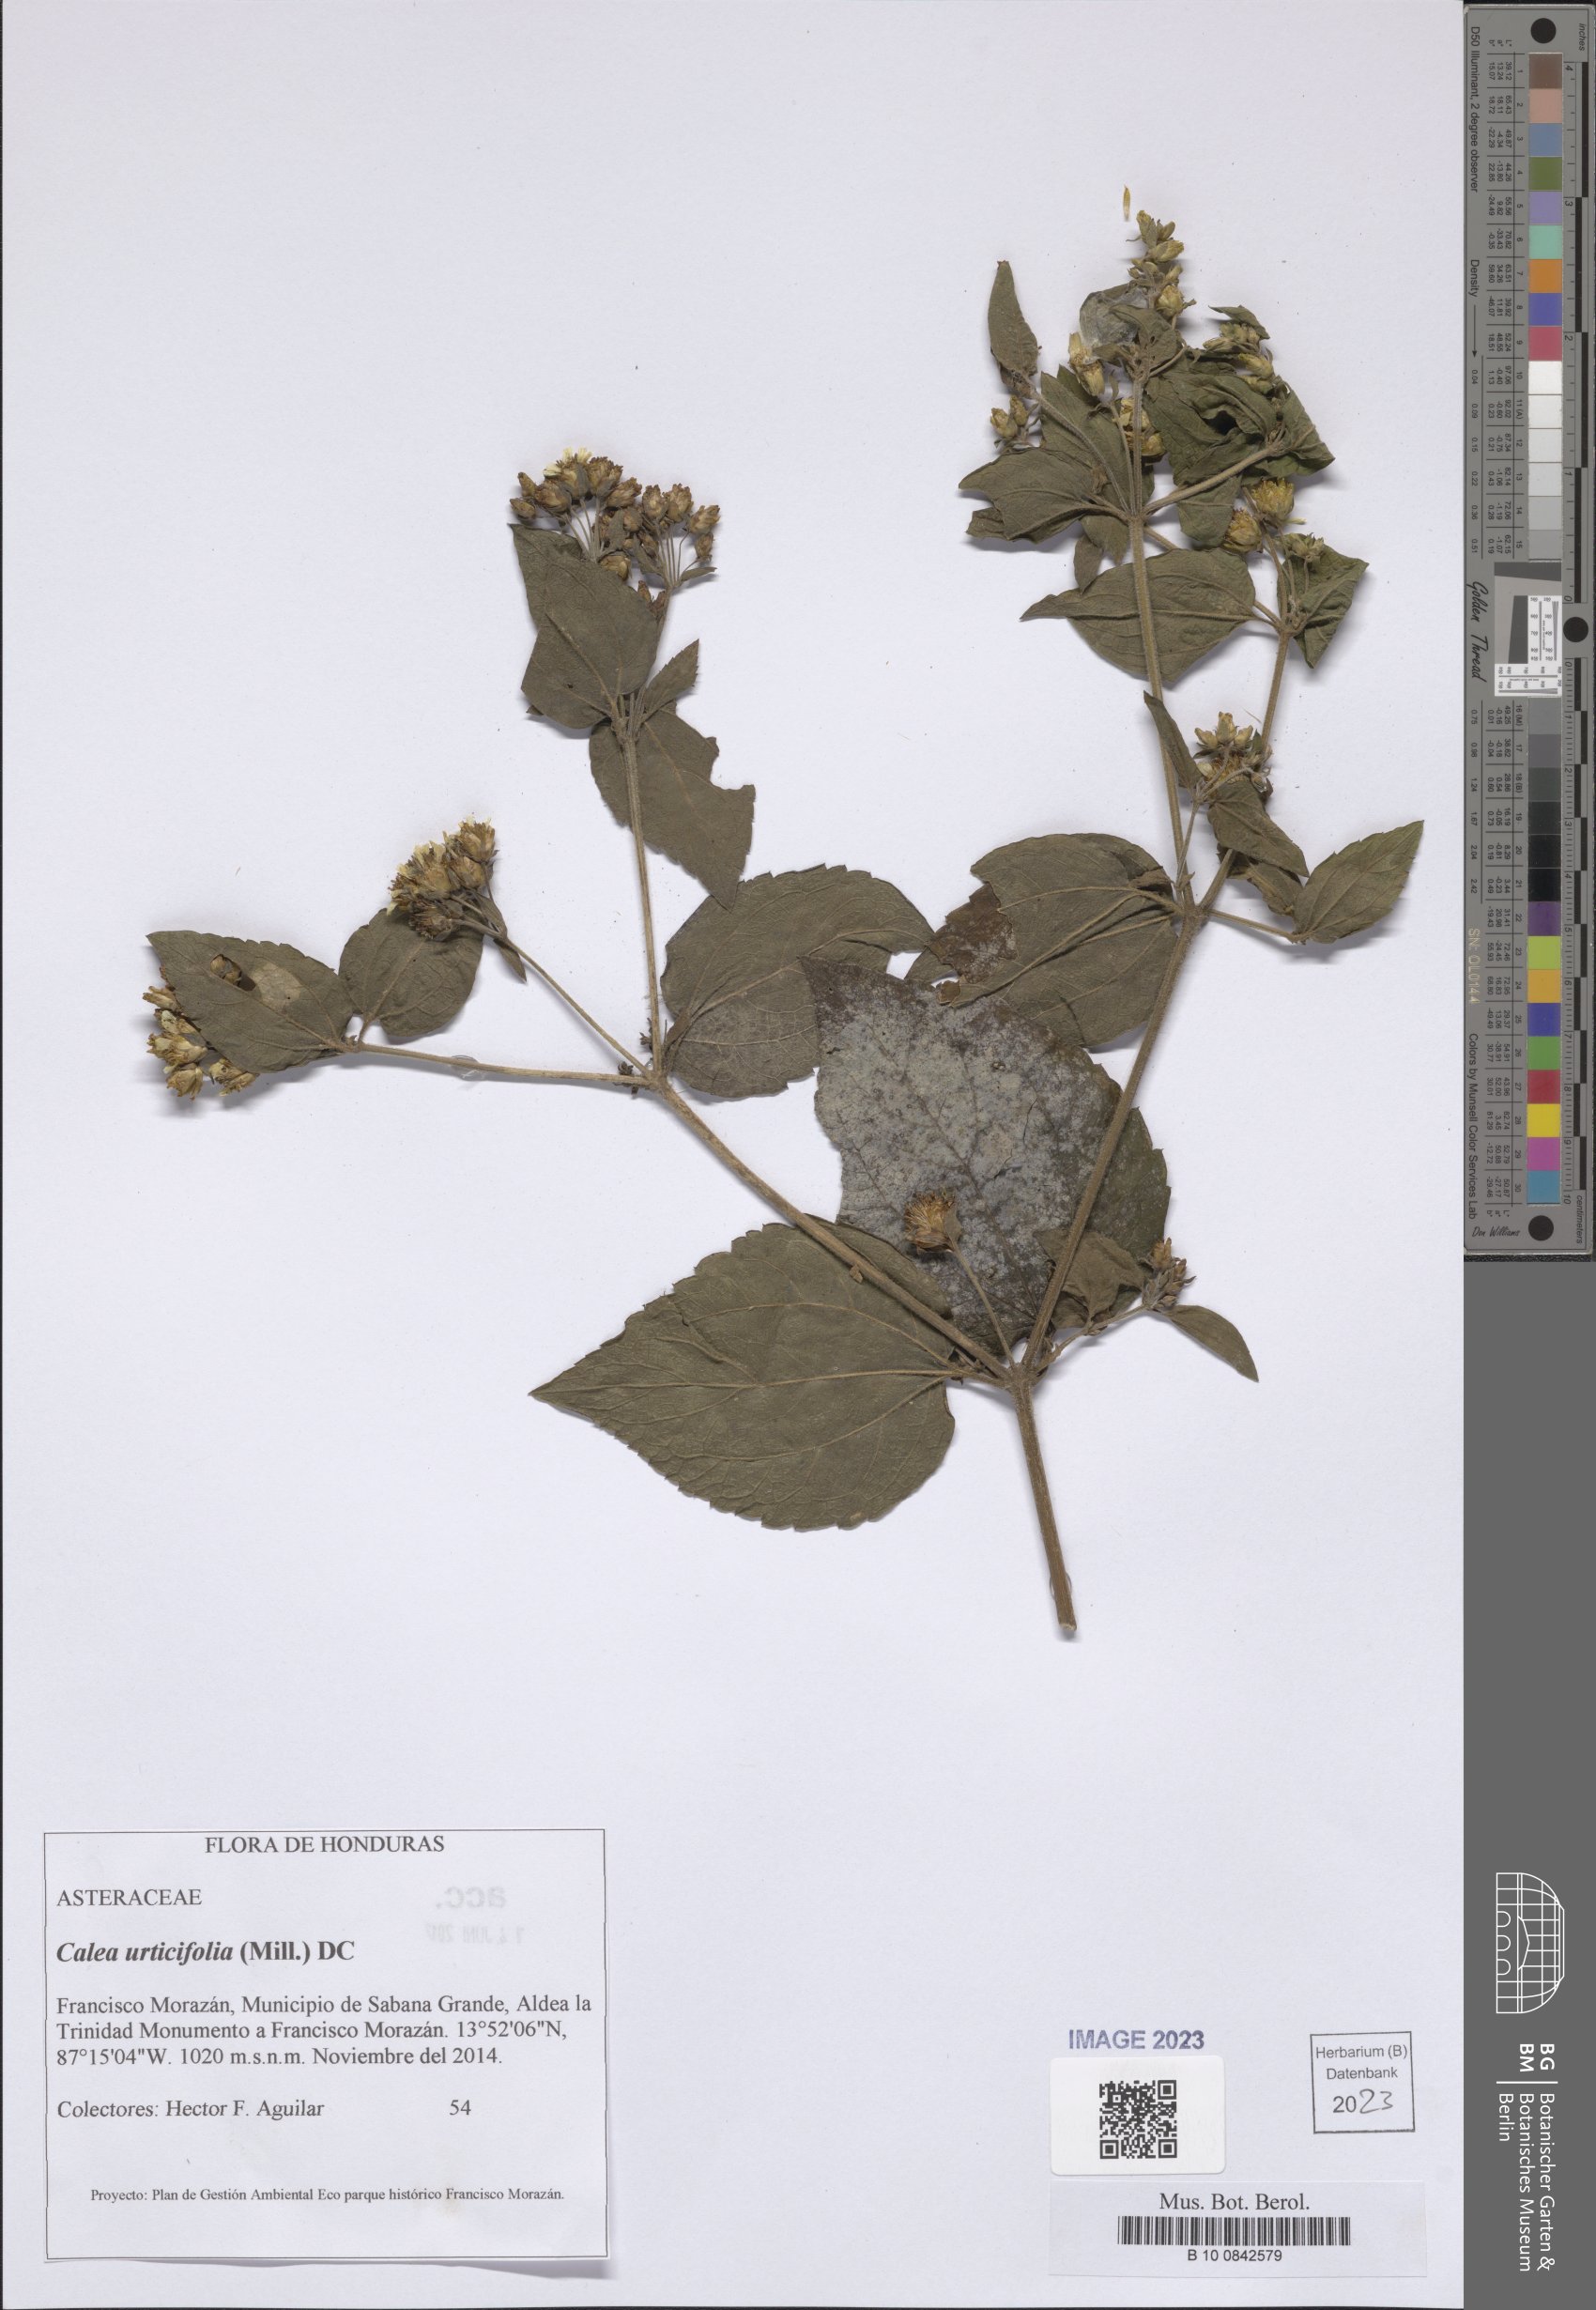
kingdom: Plantae
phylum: Tracheophyta
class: Magnoliopsida
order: Asterales
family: Asteraceae
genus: Calea
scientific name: Calea urticifolia
